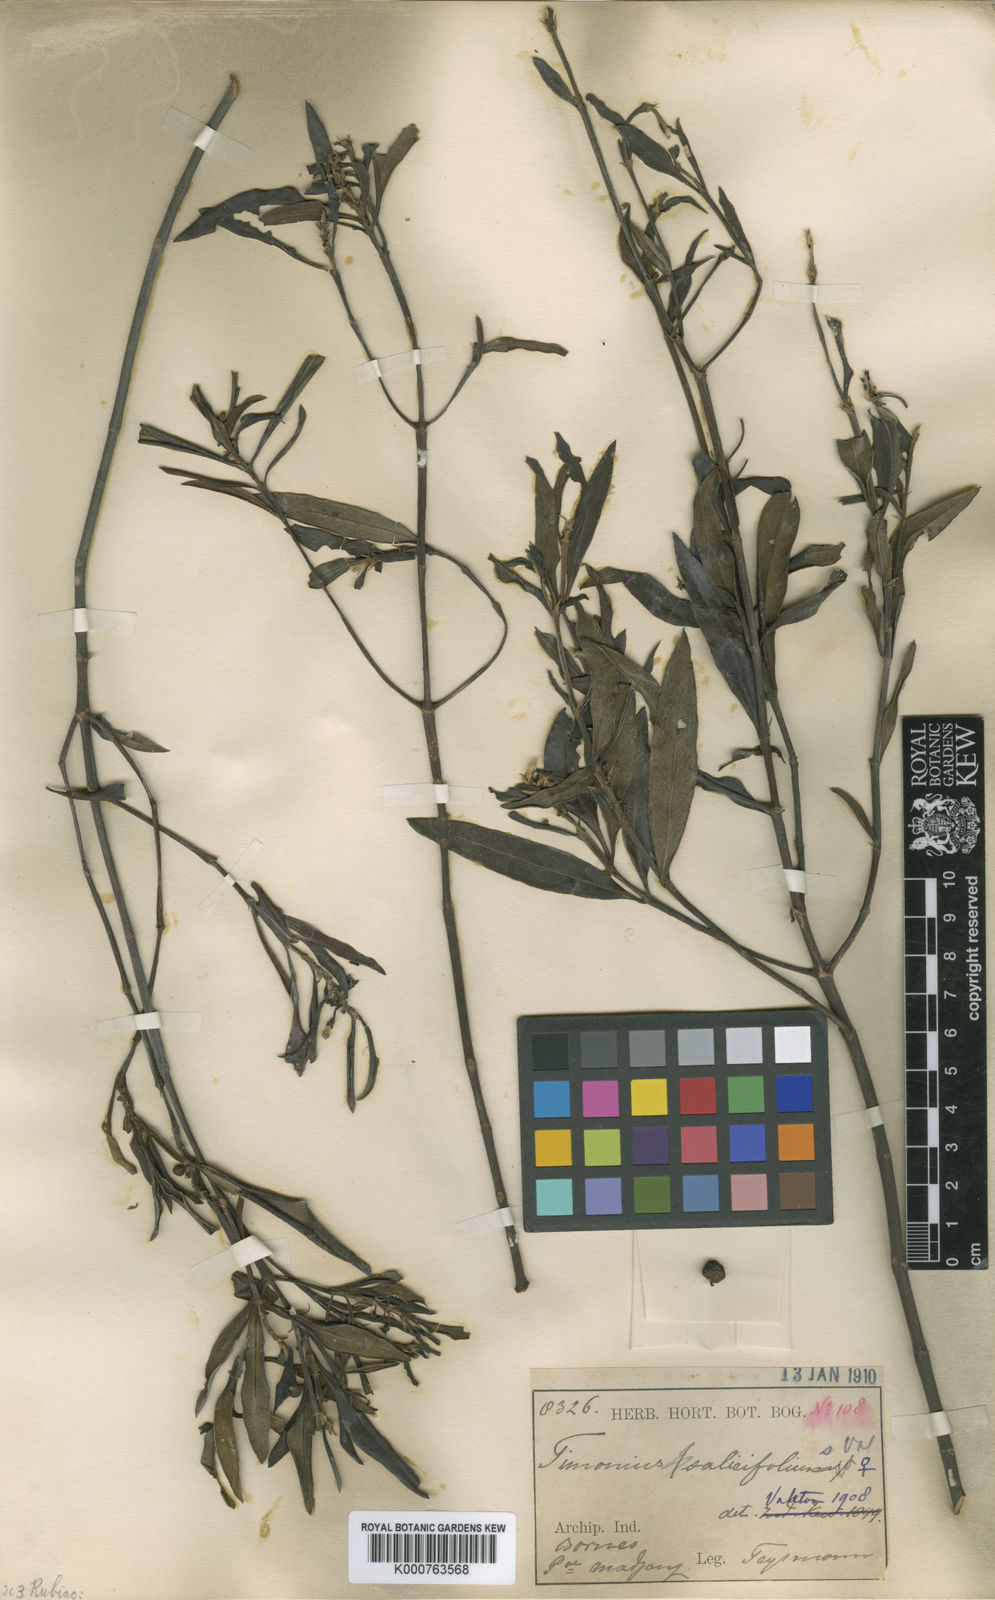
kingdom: Plantae
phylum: Tracheophyta
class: Magnoliopsida
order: Gentianales
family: Rubiaceae
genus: Timonius
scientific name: Timonius salicifolius
